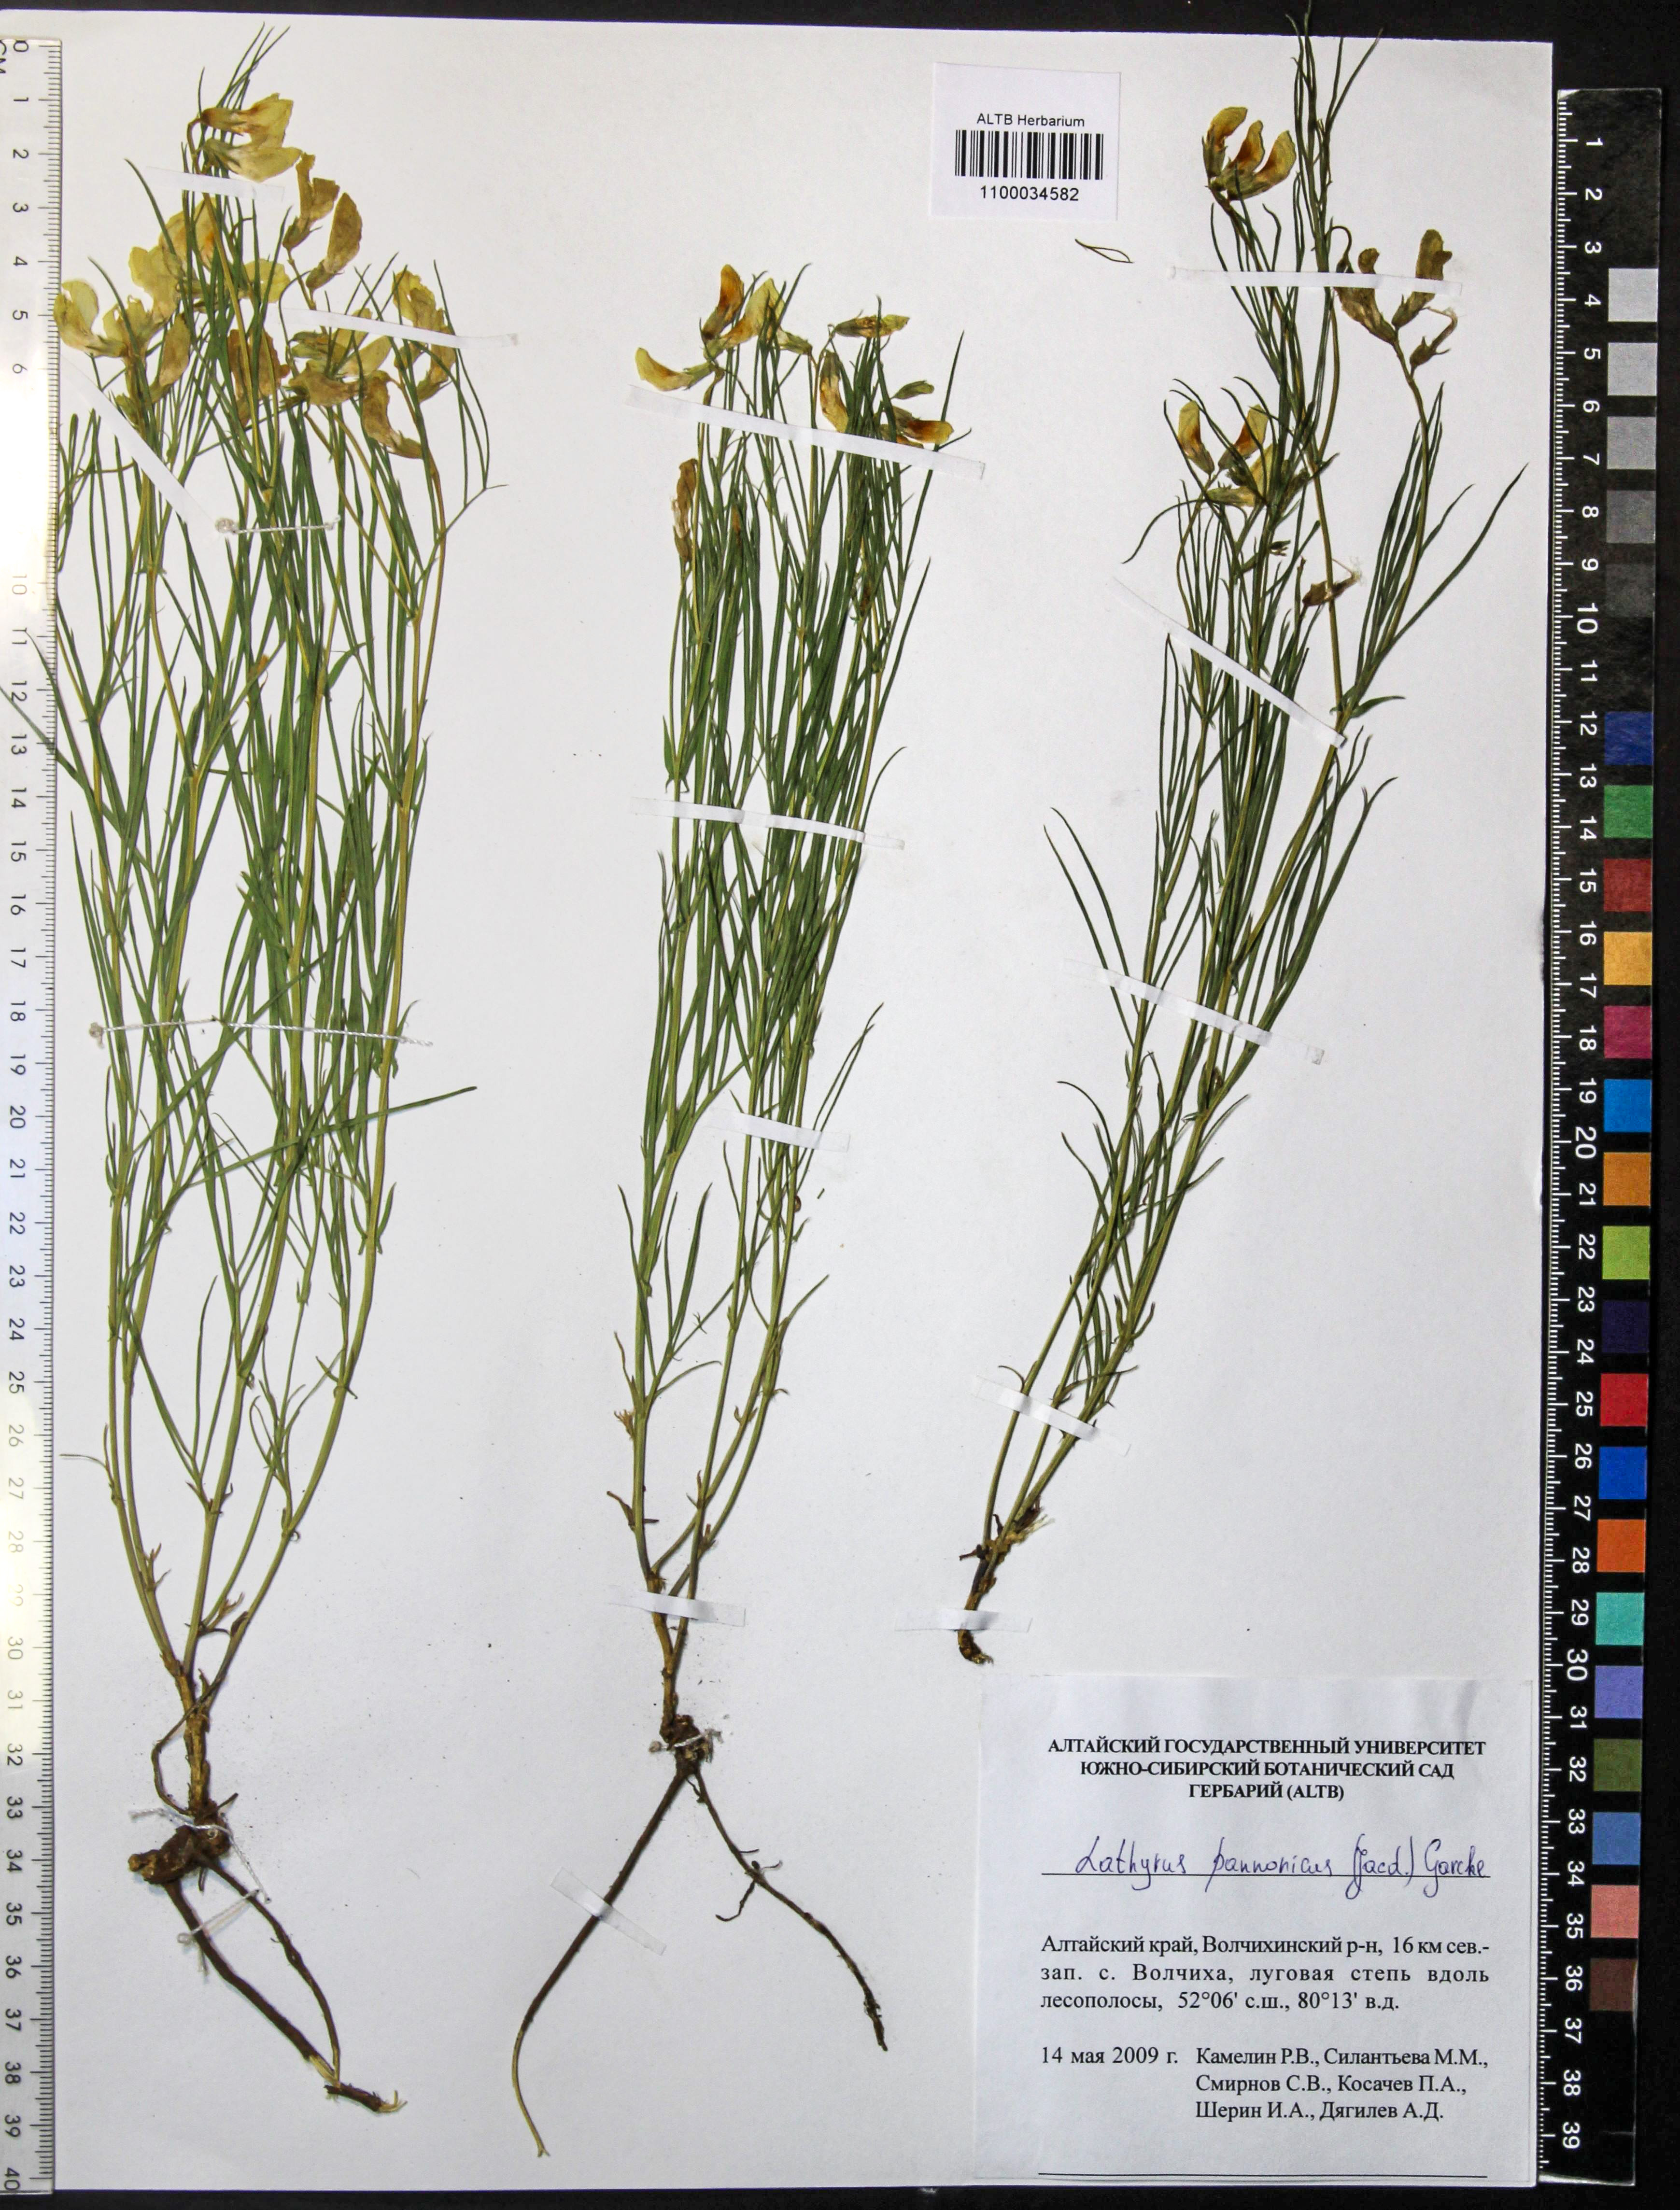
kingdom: Plantae
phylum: Tracheophyta
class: Magnoliopsida
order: Fabales
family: Fabaceae
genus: Lathyrus
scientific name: Lathyrus pannonicus
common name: Pea
